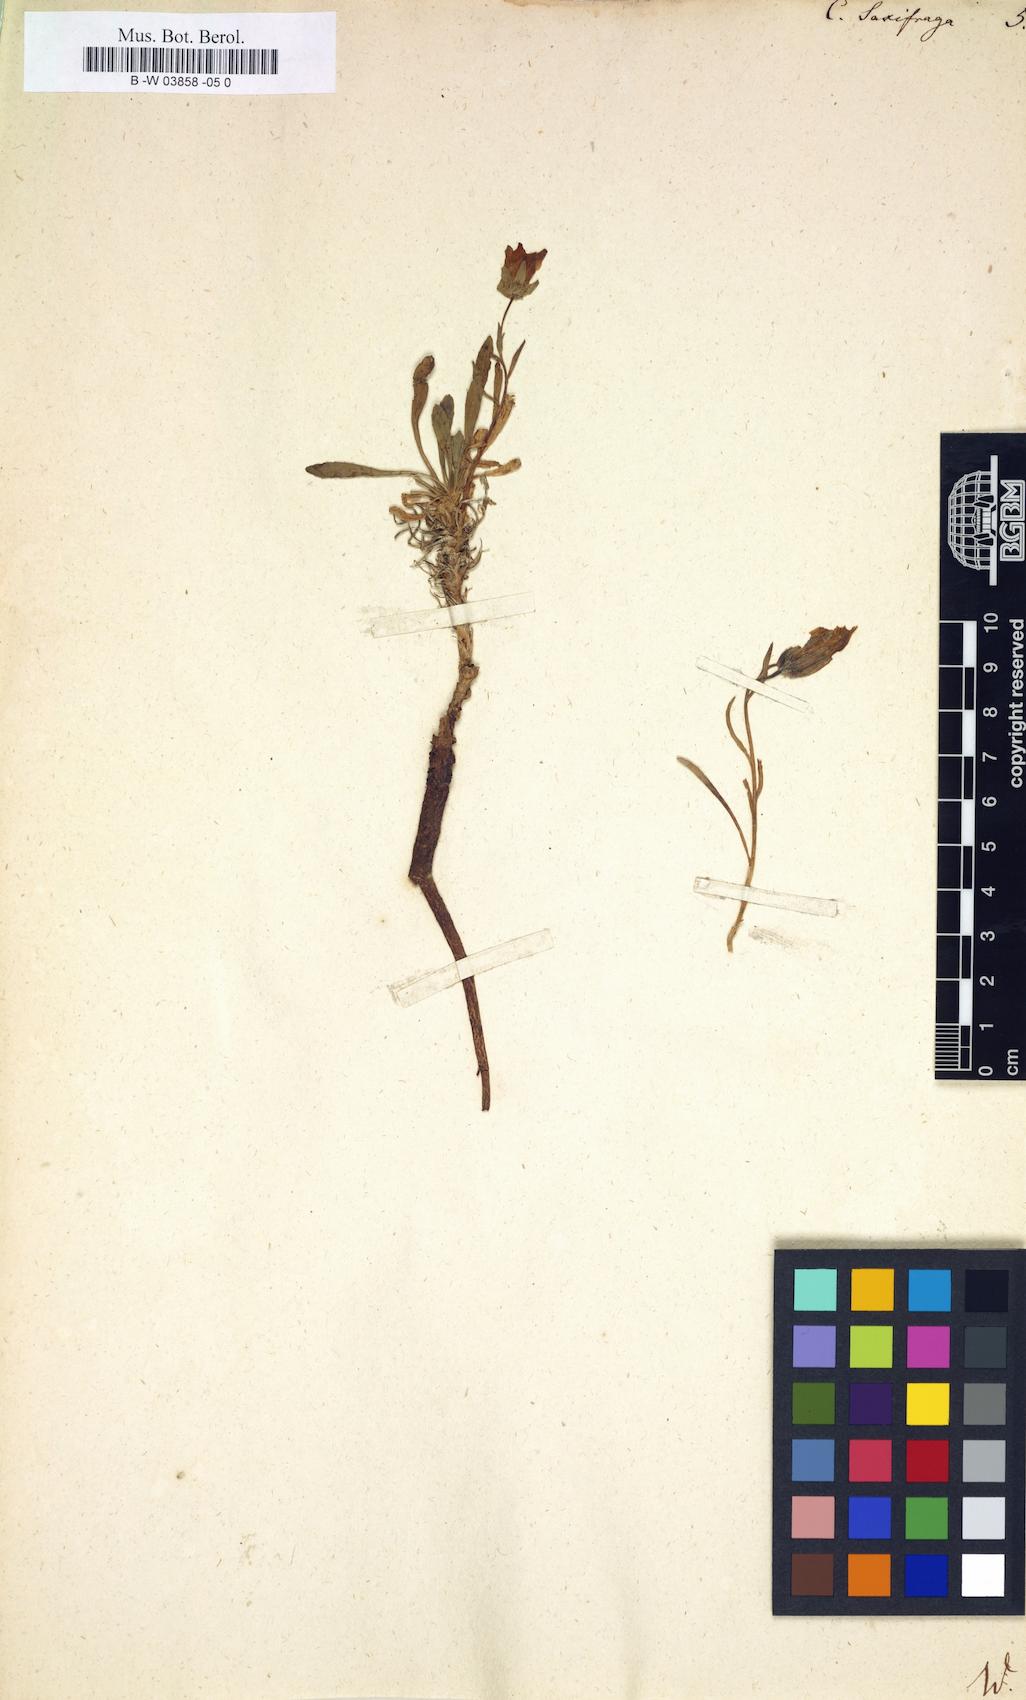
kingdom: Plantae
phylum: Tracheophyta
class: Magnoliopsida
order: Asterales
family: Campanulaceae
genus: Campanula
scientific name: Campanula saxifraga
